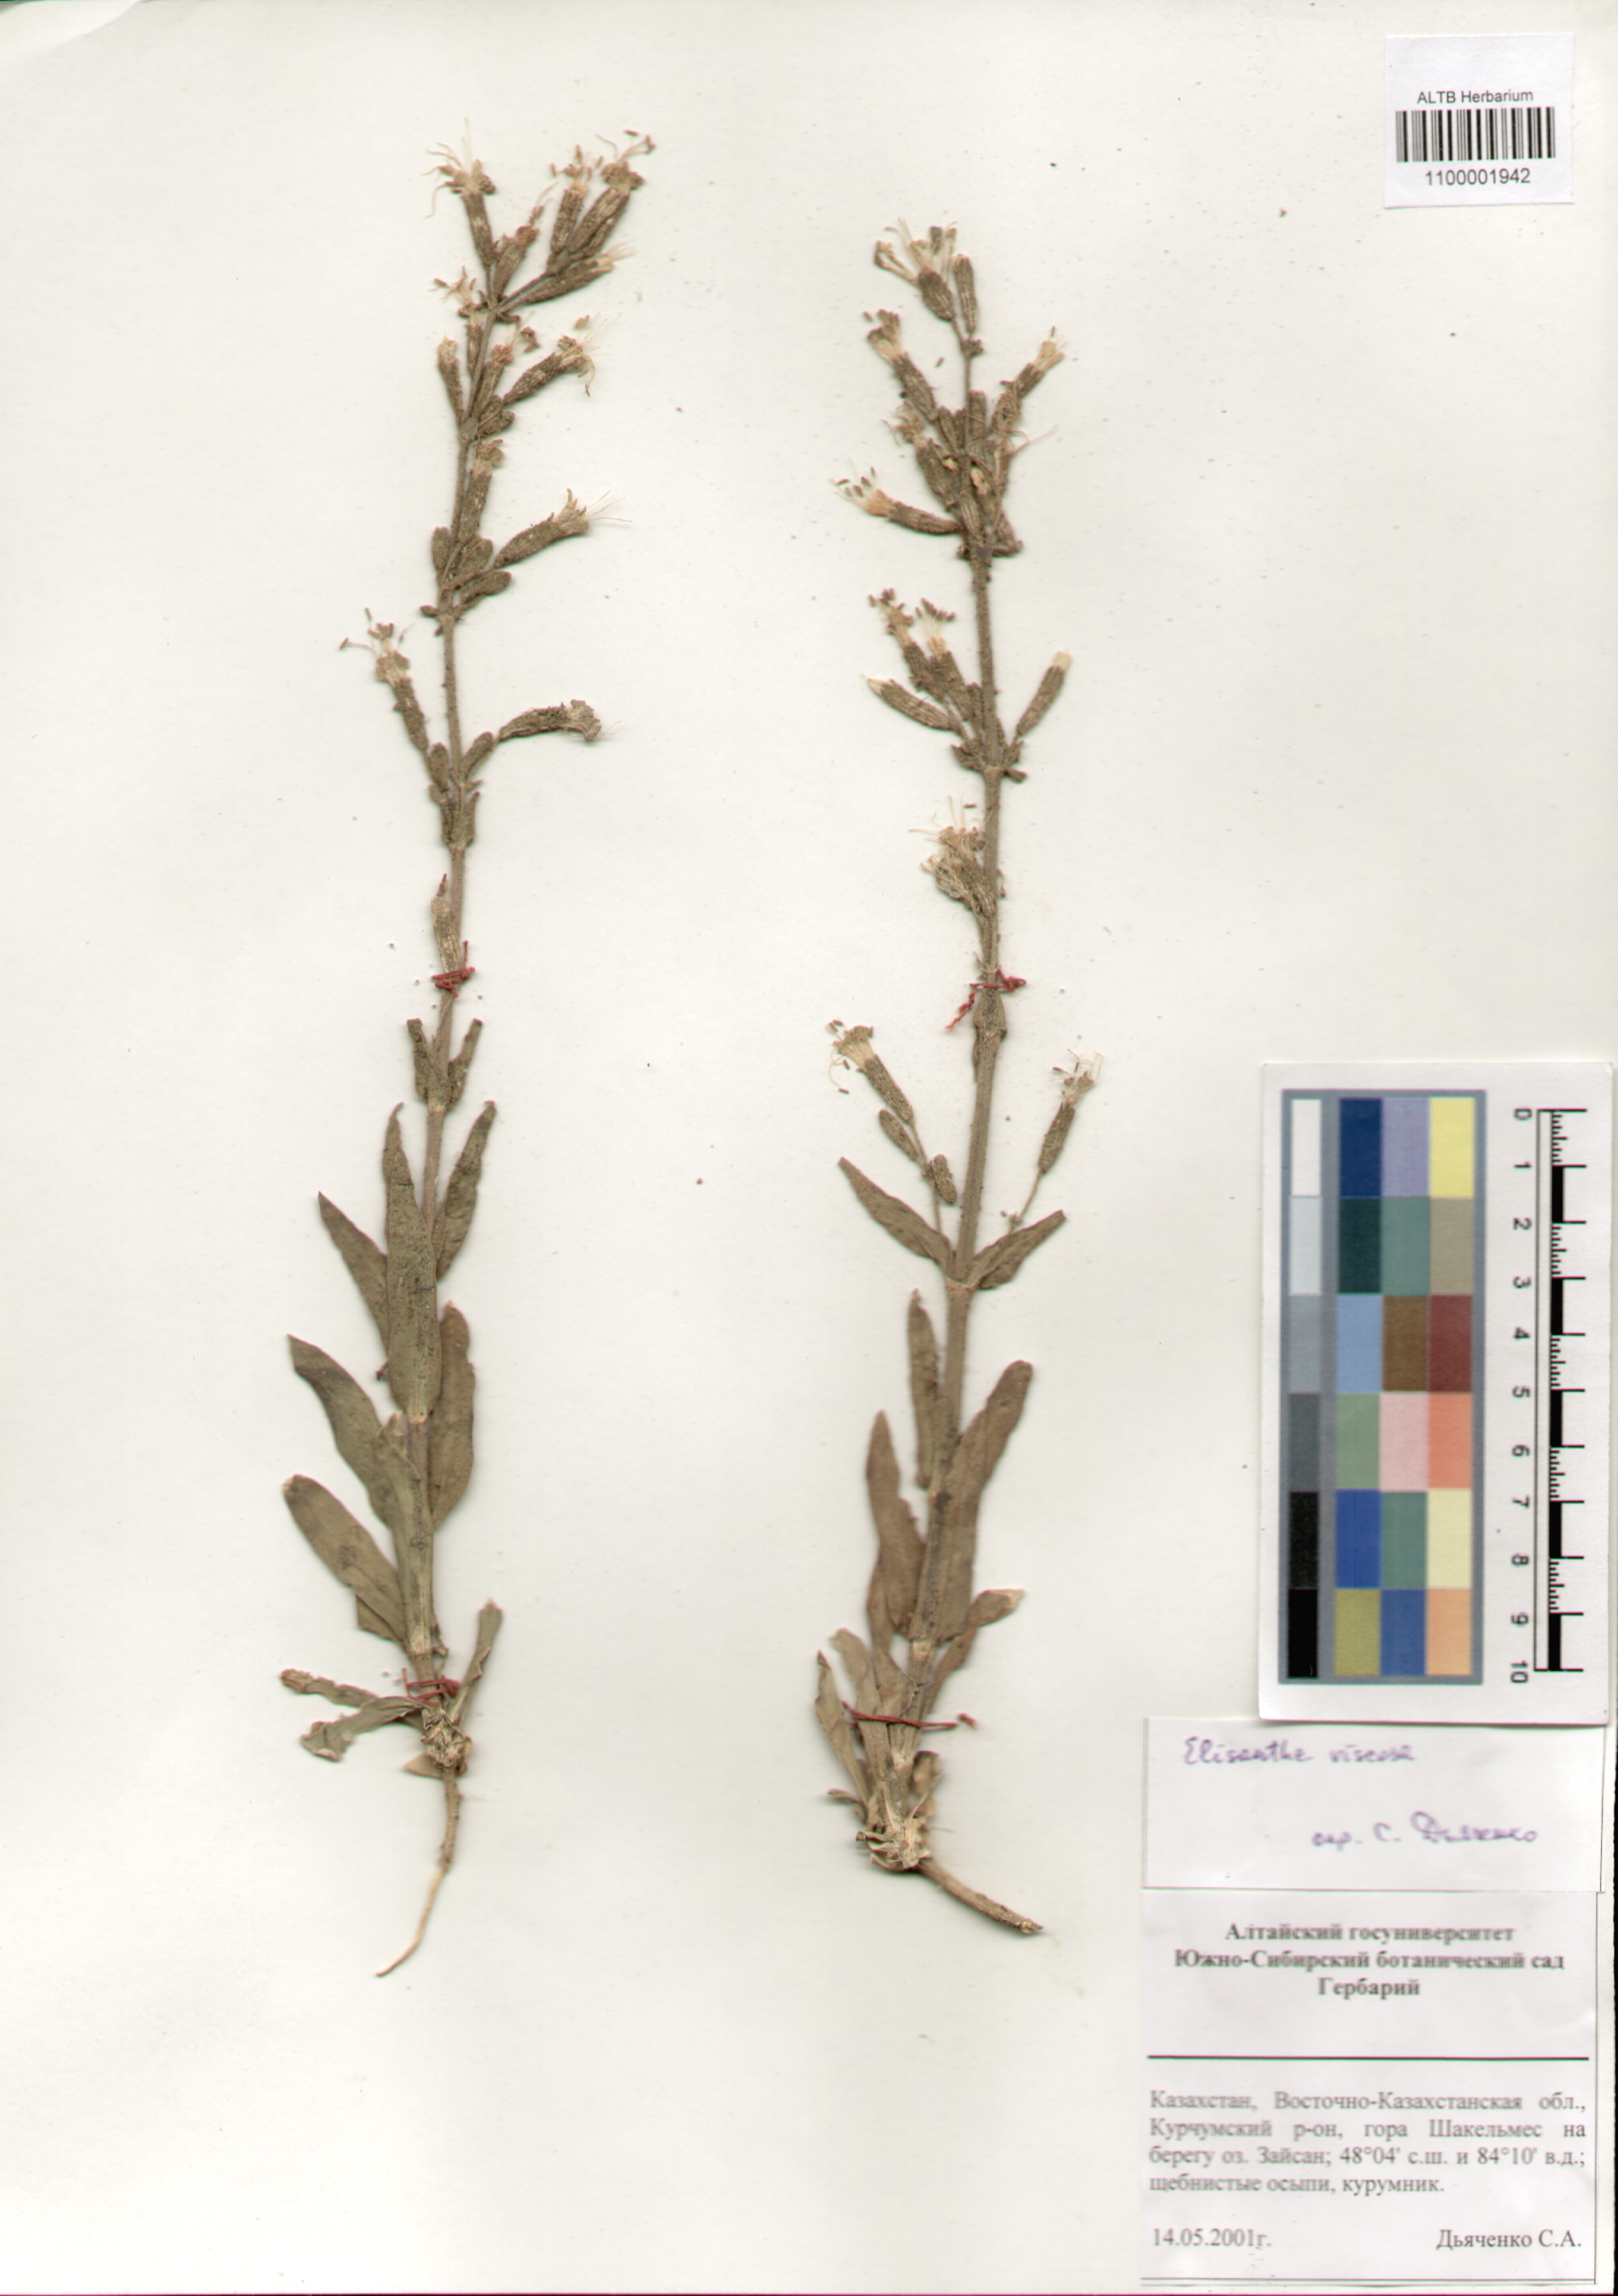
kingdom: Plantae
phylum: Tracheophyta
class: Magnoliopsida
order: Caryophyllales
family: Caryophyllaceae
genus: Silene
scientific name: Silene viscosa
